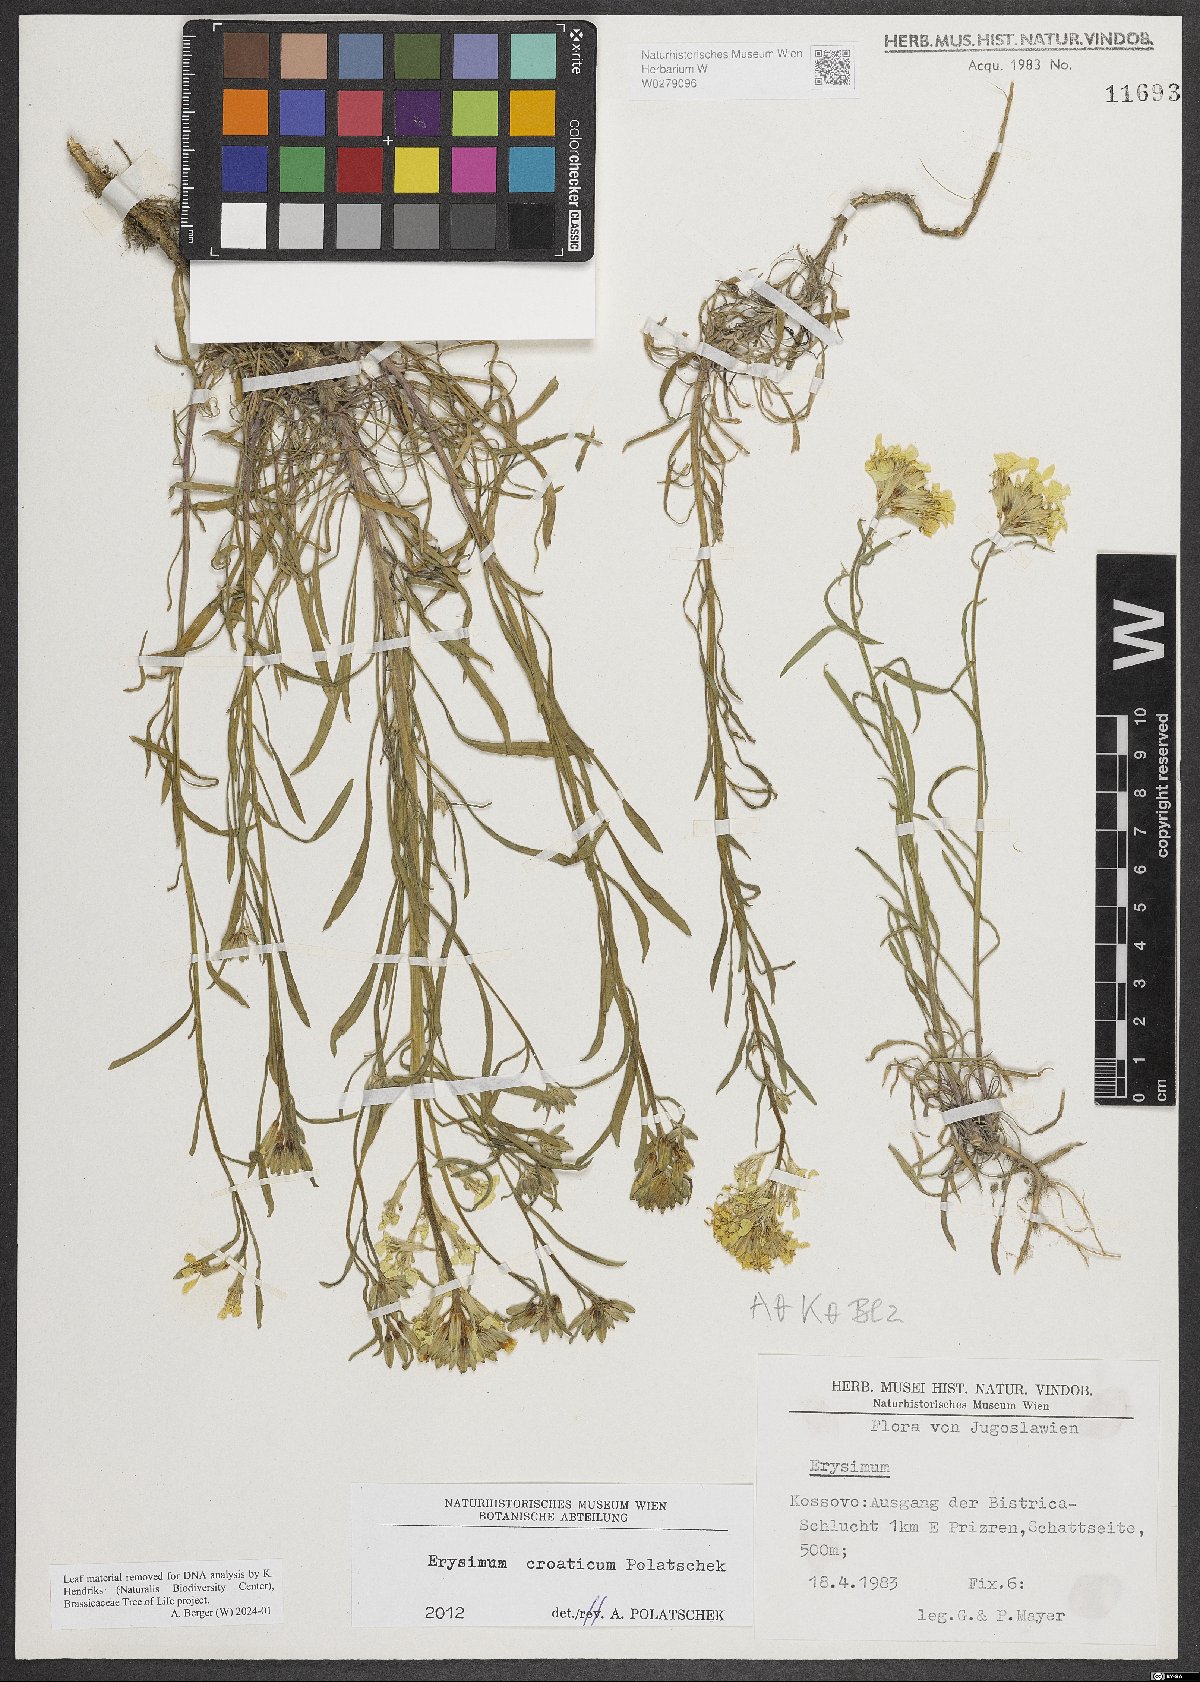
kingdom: Plantae
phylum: Tracheophyta
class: Magnoliopsida
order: Brassicales
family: Brassicaceae
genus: Erysimum
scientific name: Erysimum croaticum
